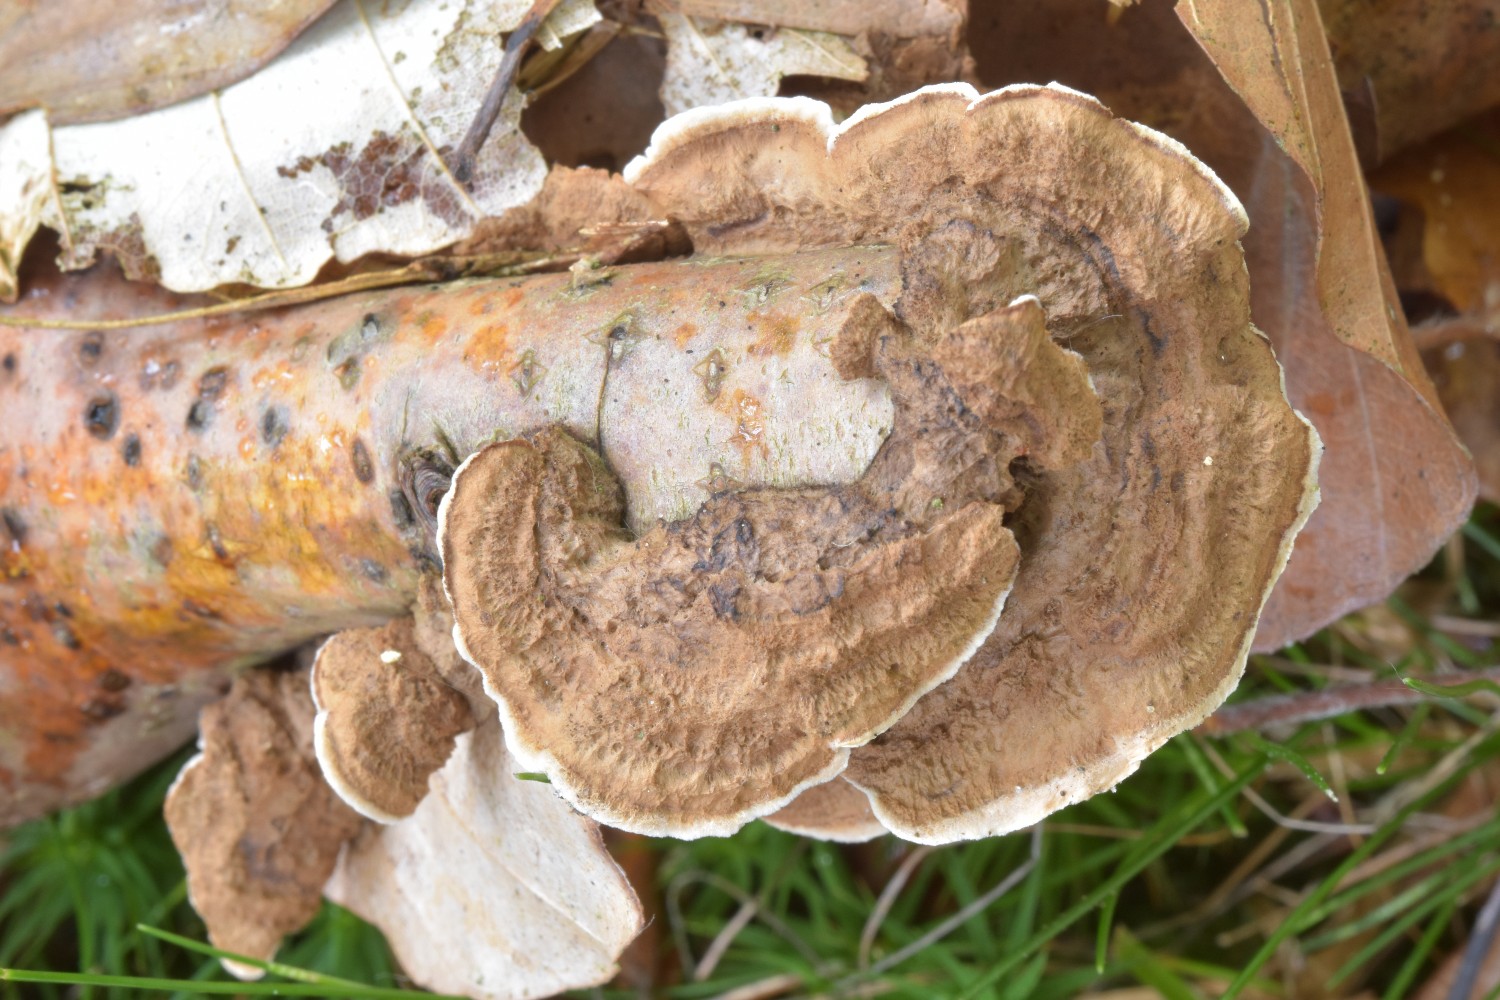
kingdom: Fungi
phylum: Basidiomycota
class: Agaricomycetes
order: Russulales
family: Hericiaceae
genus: Laxitextum
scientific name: Laxitextum bicolor
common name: tvefarvet filtskind
